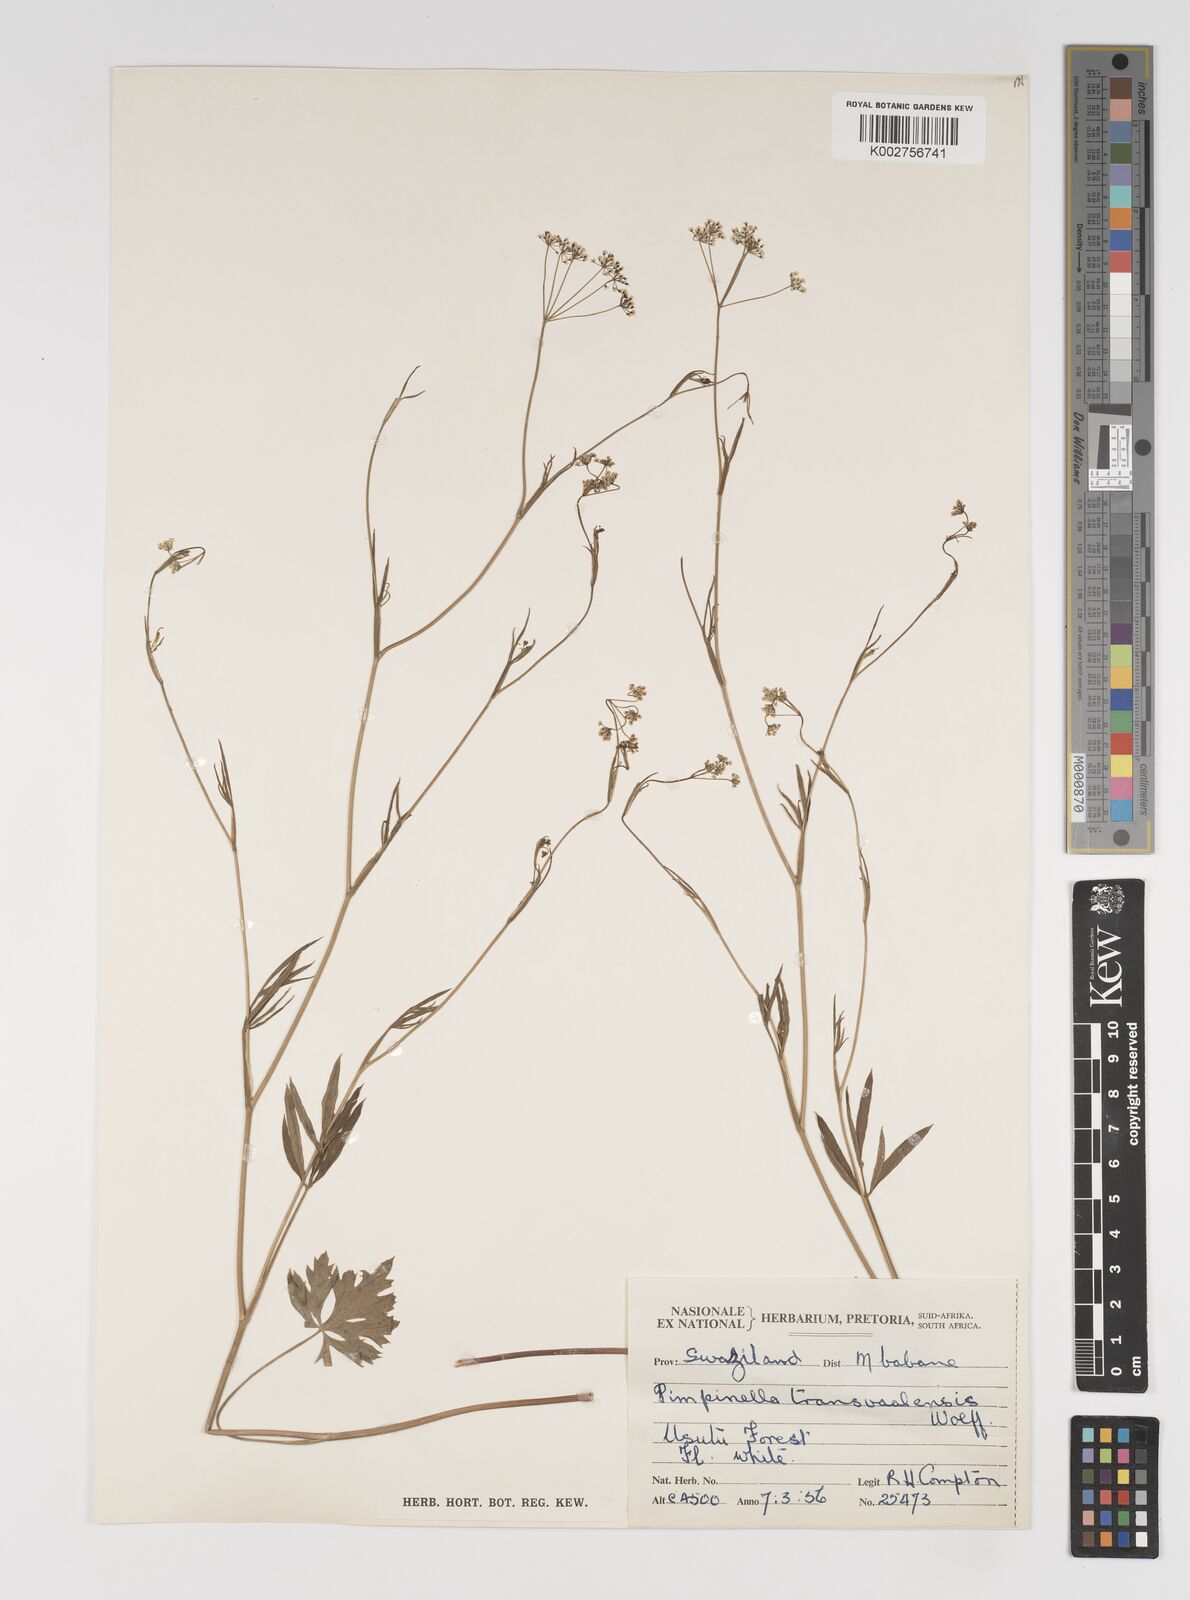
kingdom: Plantae
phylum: Tracheophyta
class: Magnoliopsida
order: Apiales
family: Apiaceae
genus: Pimpinella
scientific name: Pimpinella transvaalensis
